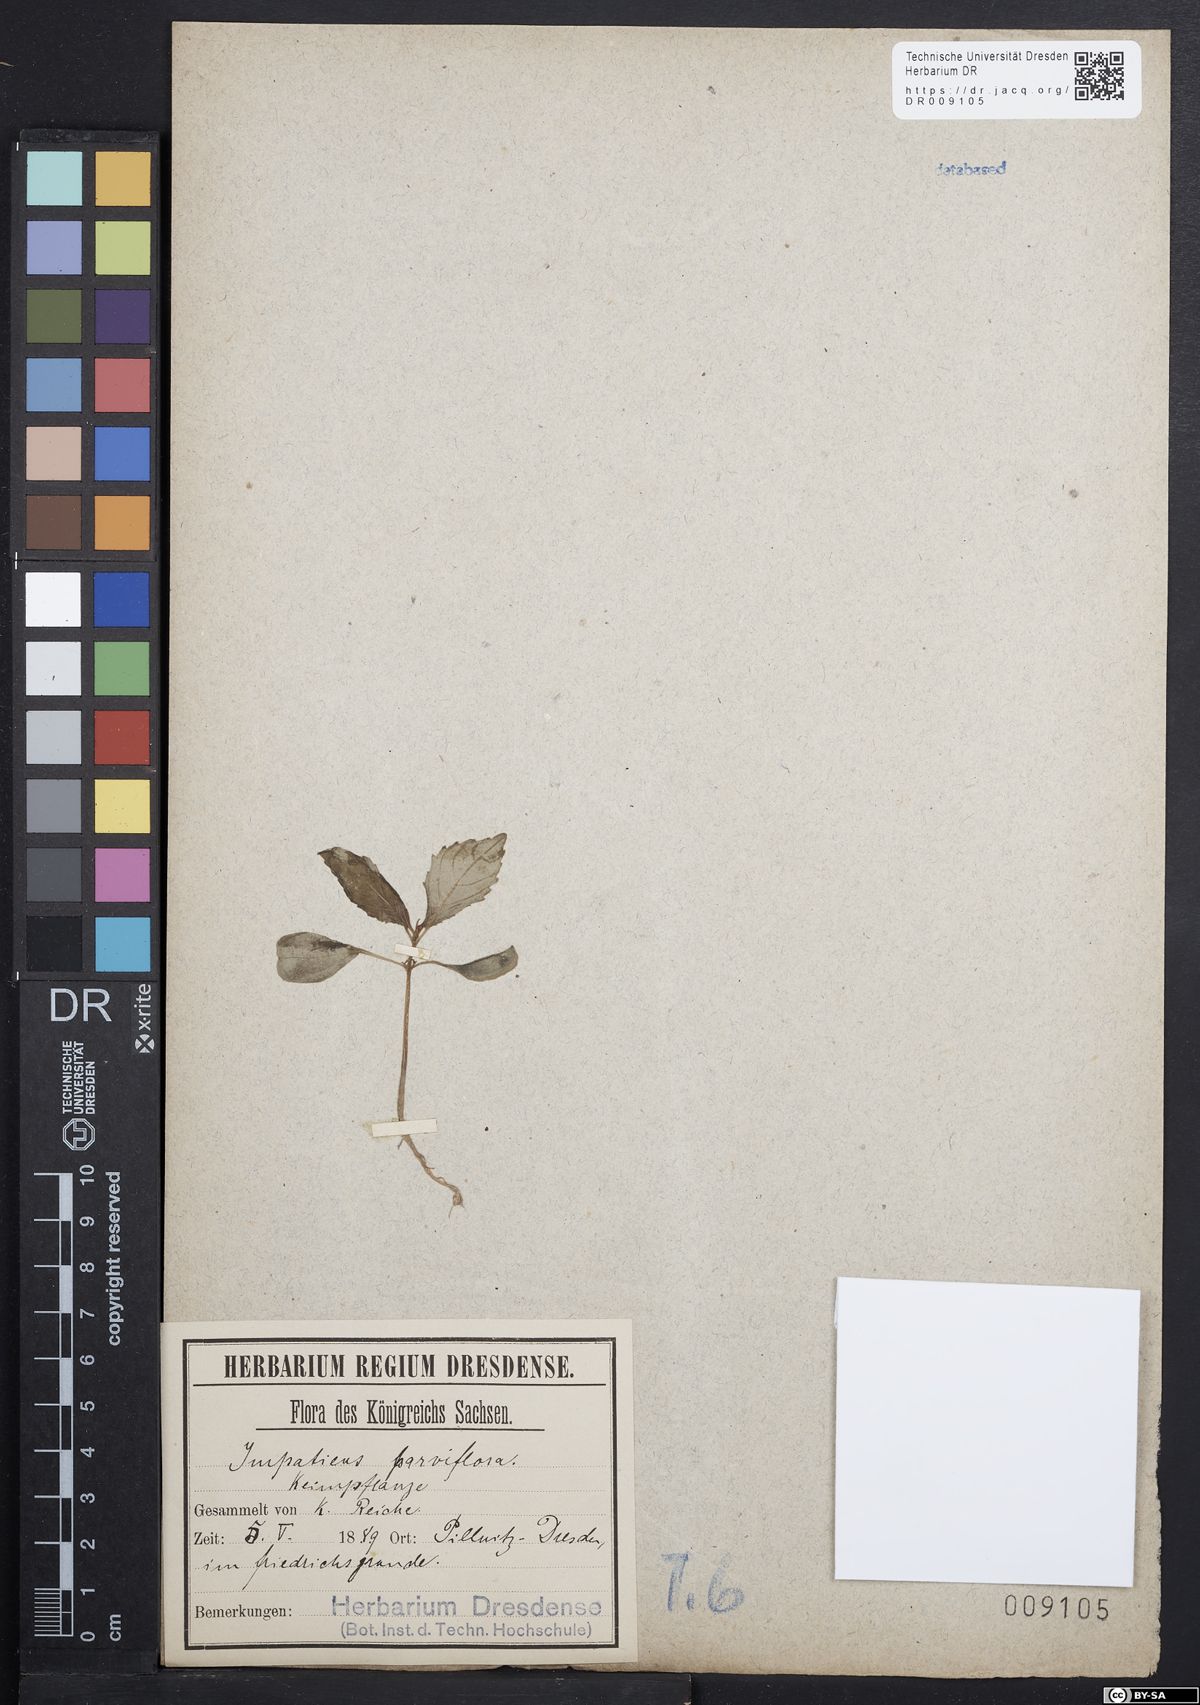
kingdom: Plantae
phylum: Tracheophyta
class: Magnoliopsida
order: Ericales
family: Balsaminaceae
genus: Impatiens
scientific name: Impatiens parviflora
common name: Small balsam
